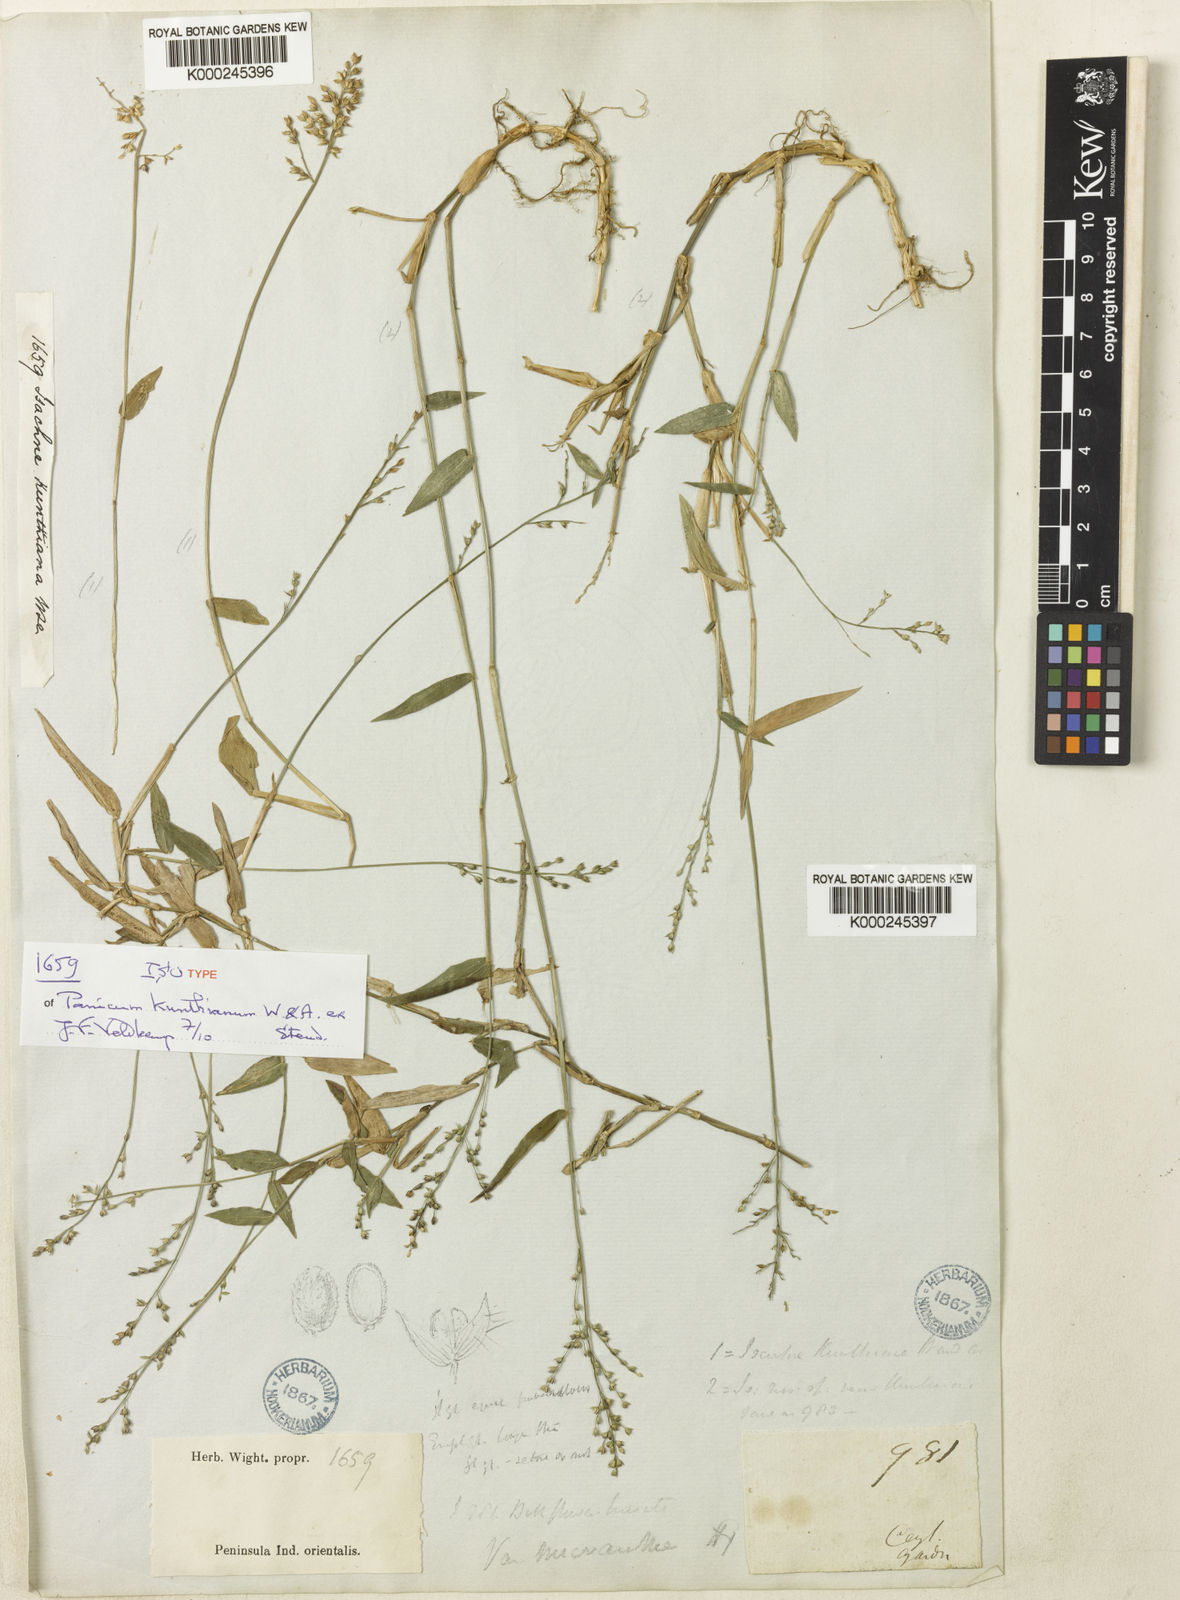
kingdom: Plantae
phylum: Tracheophyta
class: Liliopsida
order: Poales
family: Poaceae
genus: Isachne
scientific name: Isachne kunthiana
